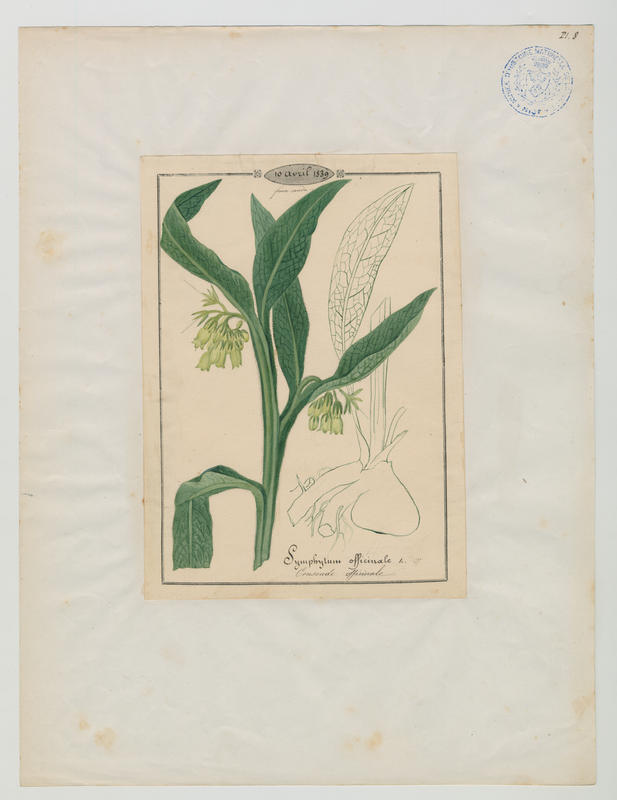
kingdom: Plantae
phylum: Tracheophyta
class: Magnoliopsida
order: Boraginales
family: Boraginaceae
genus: Symphytum
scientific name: Symphytum officinale
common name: Common comfrey
